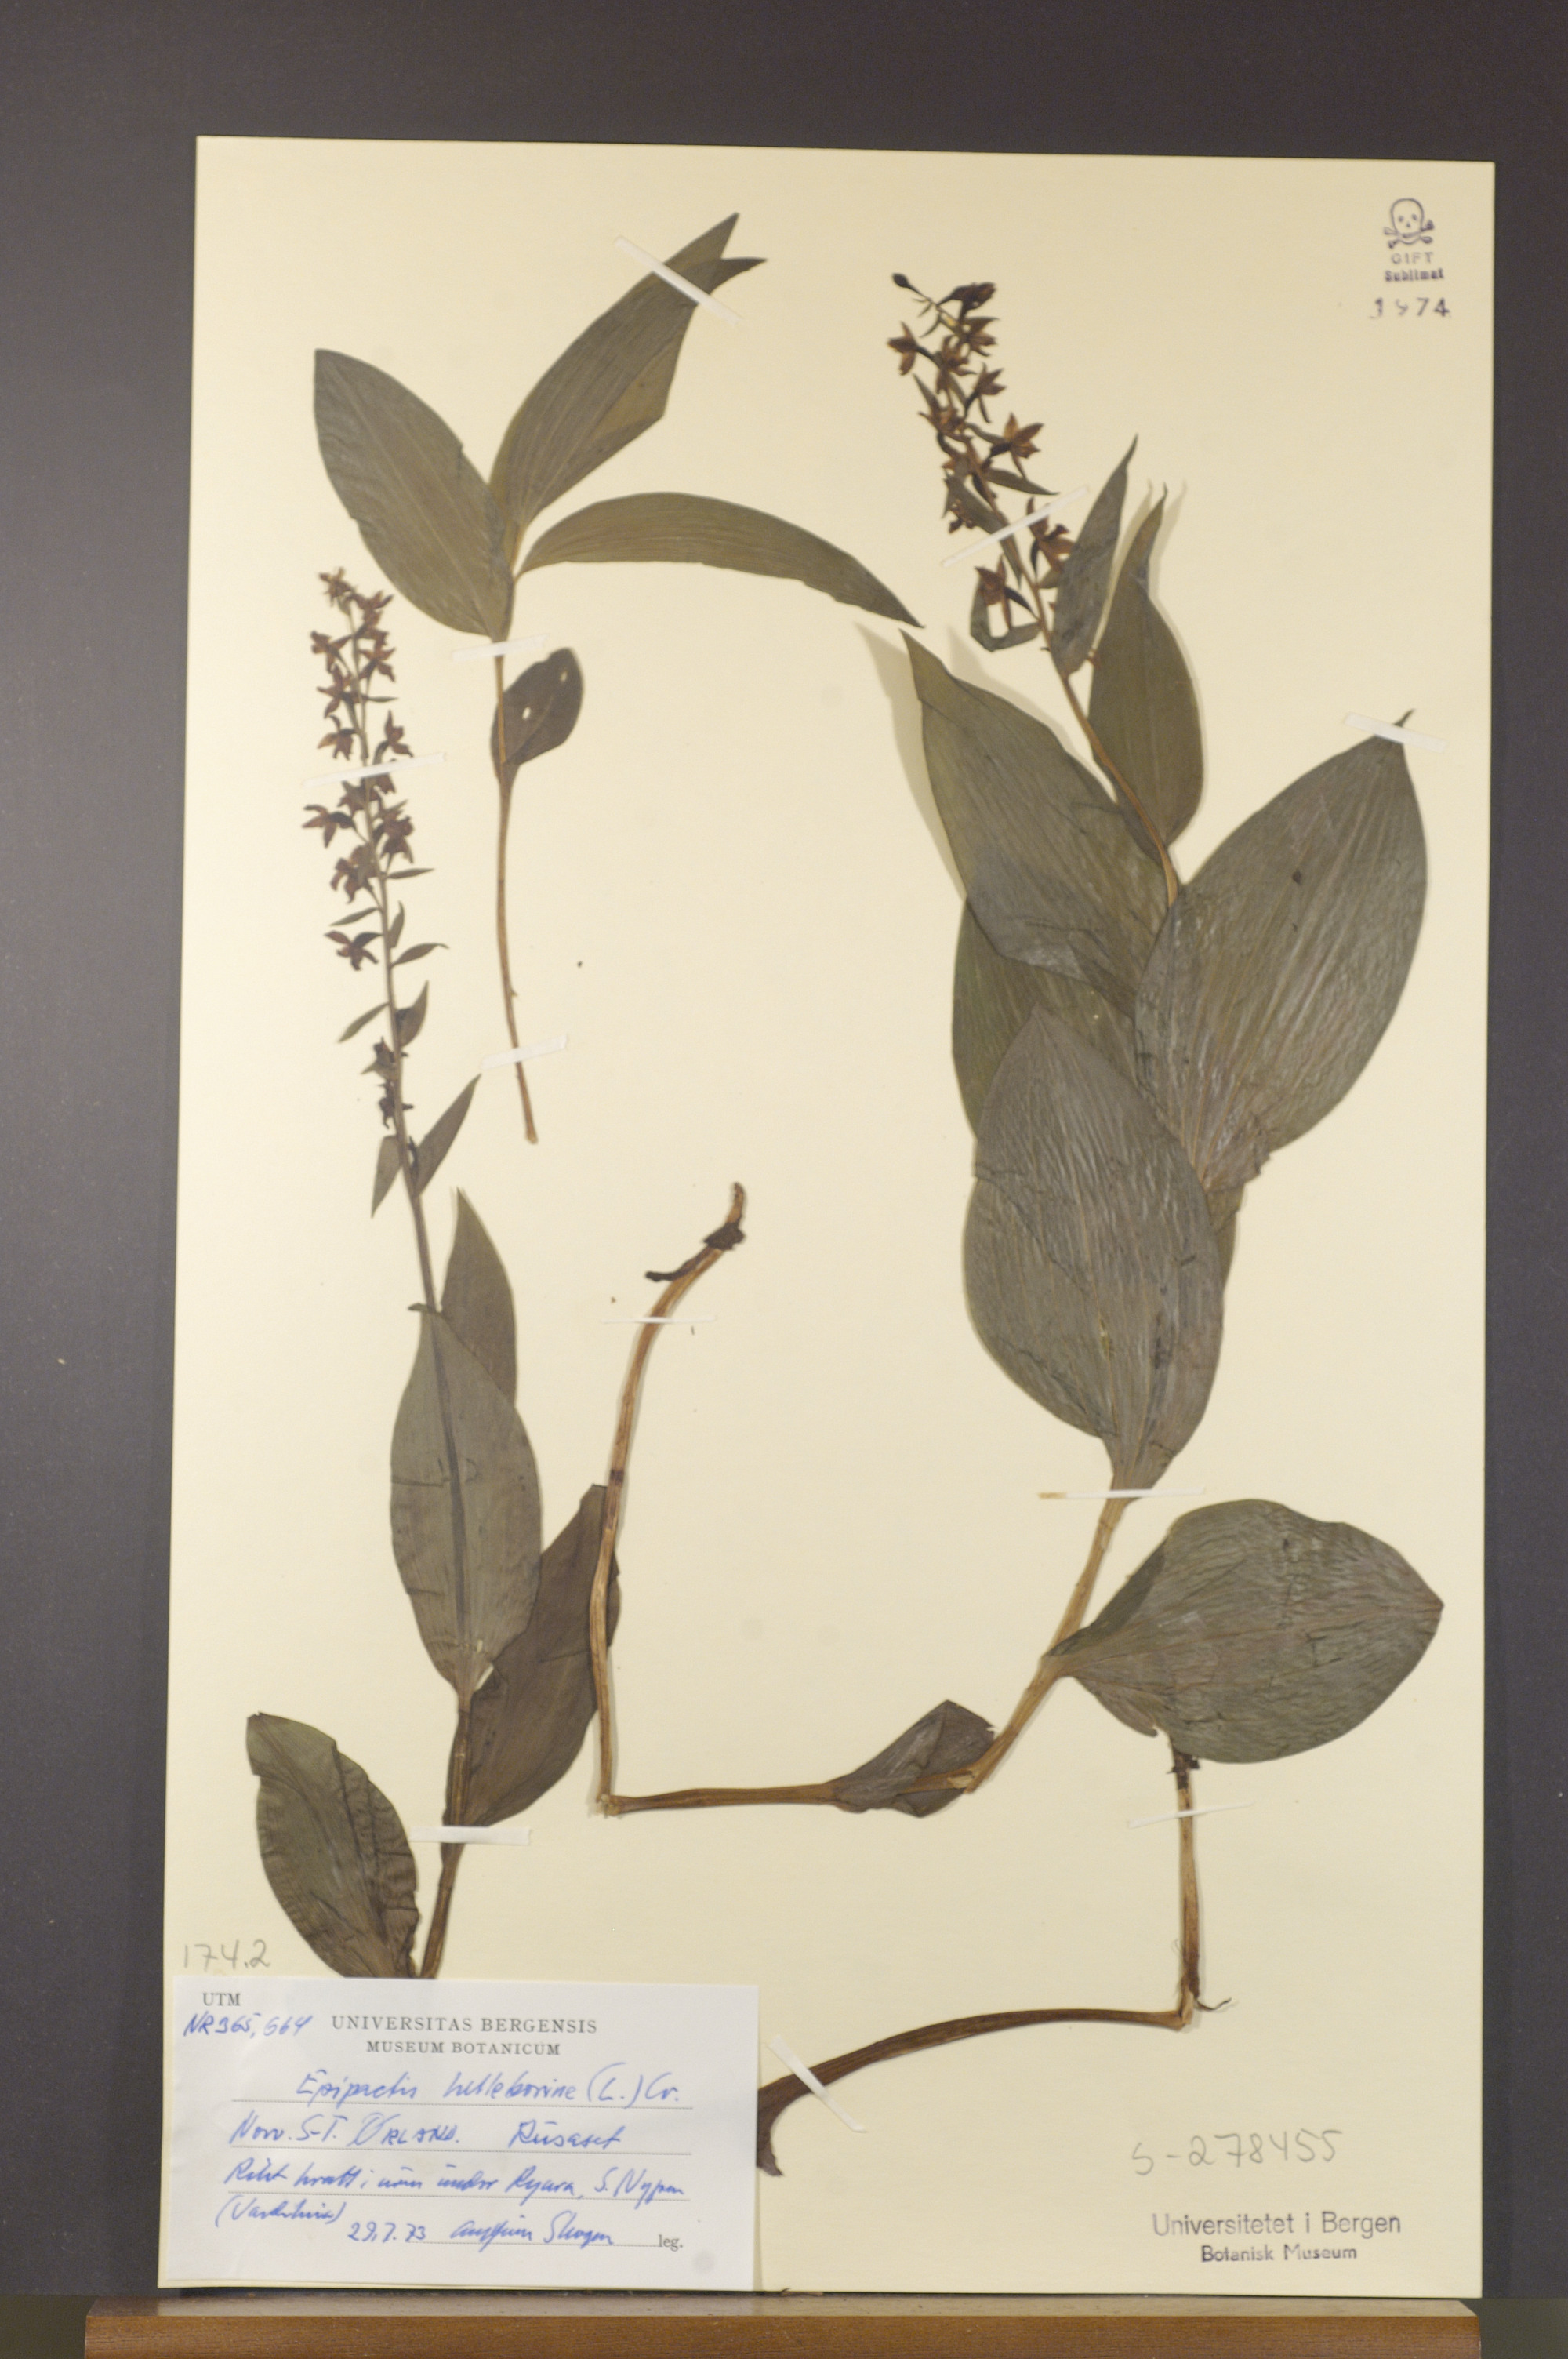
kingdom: Plantae
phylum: Tracheophyta
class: Liliopsida
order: Asparagales
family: Orchidaceae
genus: Epipactis
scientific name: Epipactis helleborine
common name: Broad-leaved helleborine
